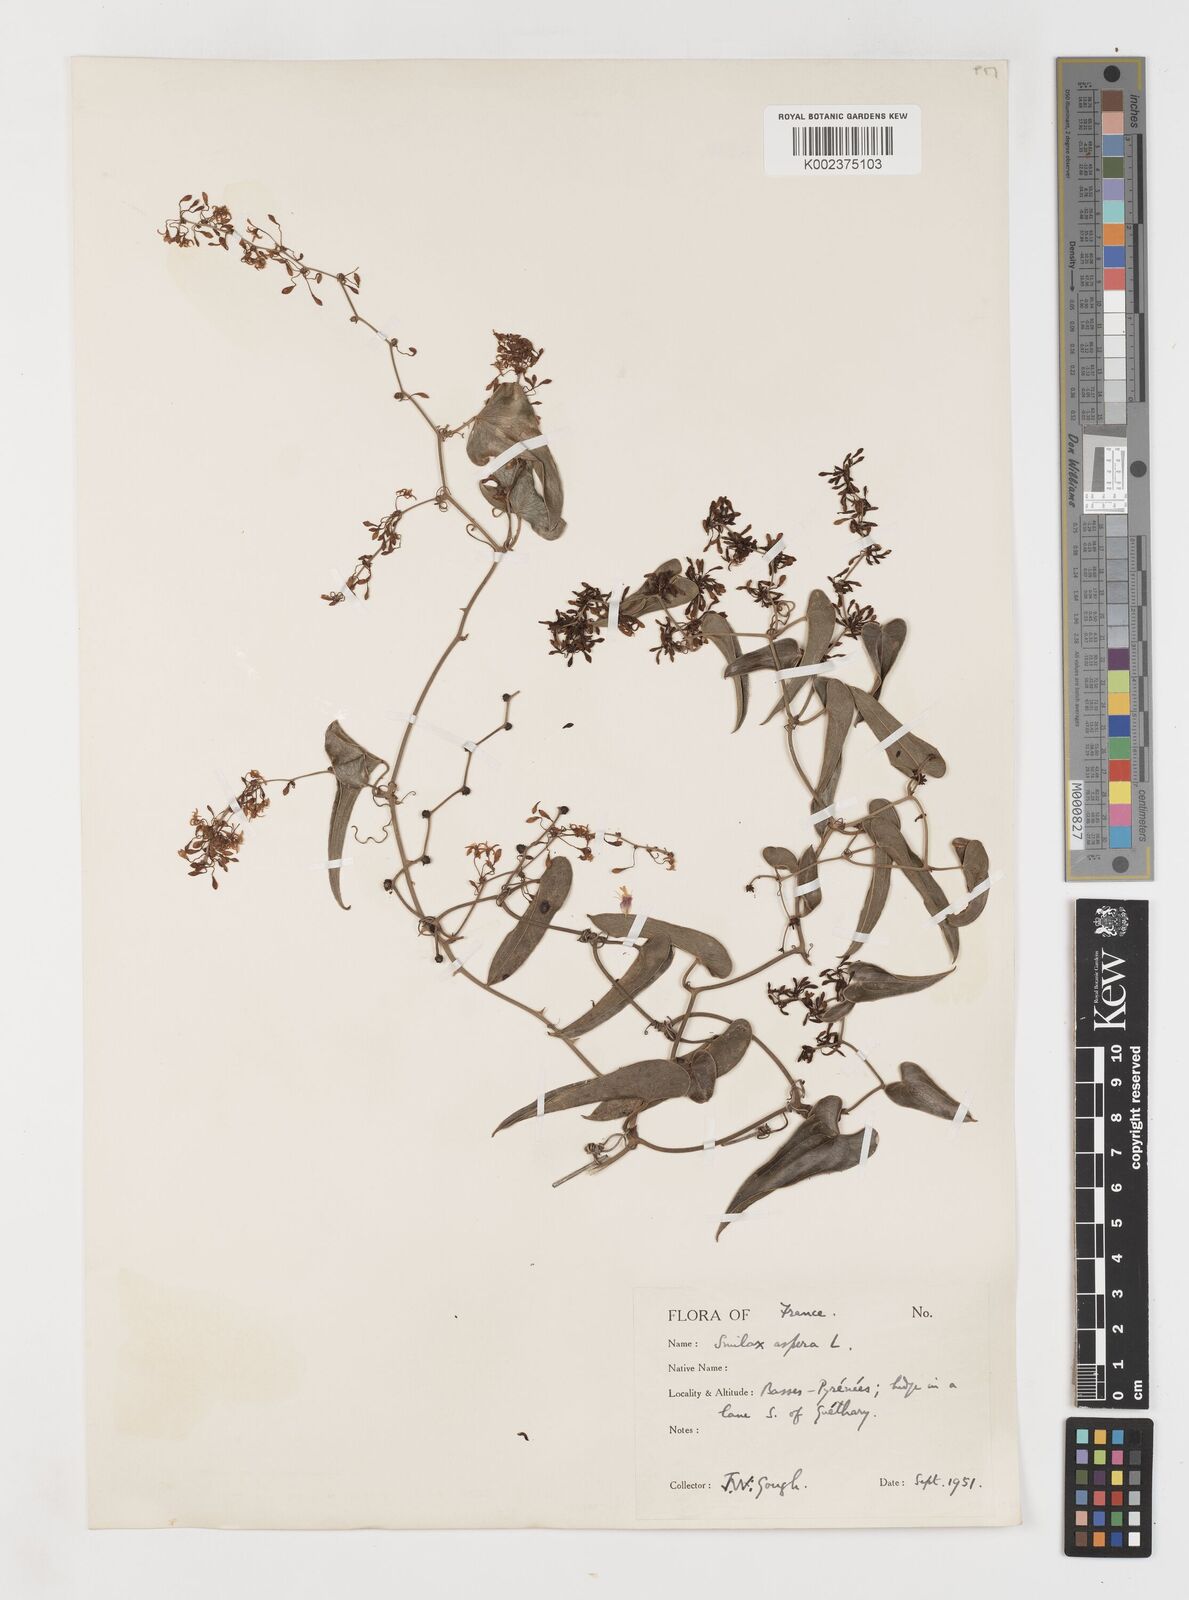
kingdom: Plantae
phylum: Tracheophyta
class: Liliopsida
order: Liliales
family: Smilacaceae
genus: Smilax
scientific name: Smilax aspera
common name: Common smilax
